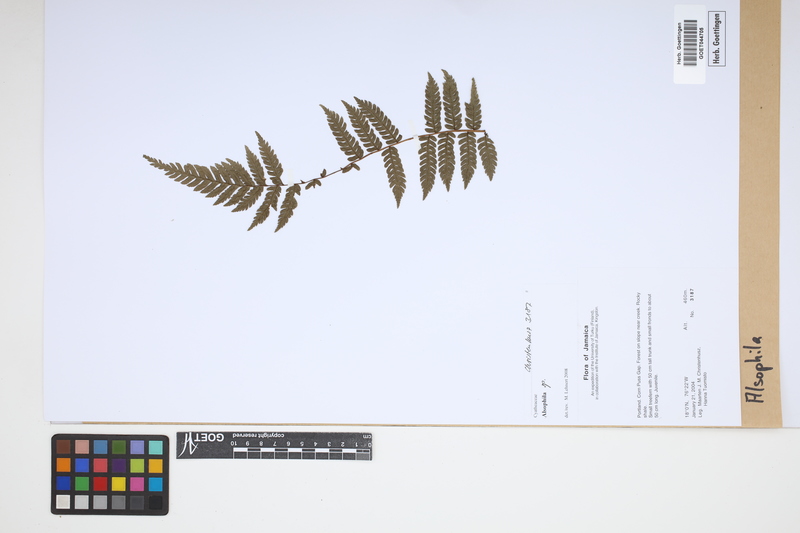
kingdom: Plantae
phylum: Tracheophyta
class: Polypodiopsida
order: Cyatheales
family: Cyatheaceae
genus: Alsophila
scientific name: Alsophila
